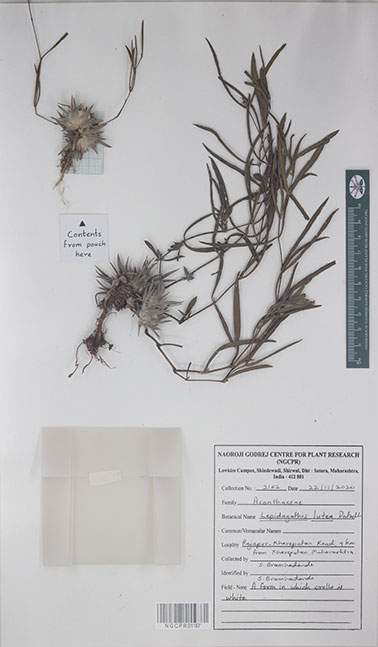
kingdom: Plantae
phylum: Tracheophyta
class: Magnoliopsida
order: Lamiales
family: Acanthaceae
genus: Lepidagathis
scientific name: Lepidagathis lutea
